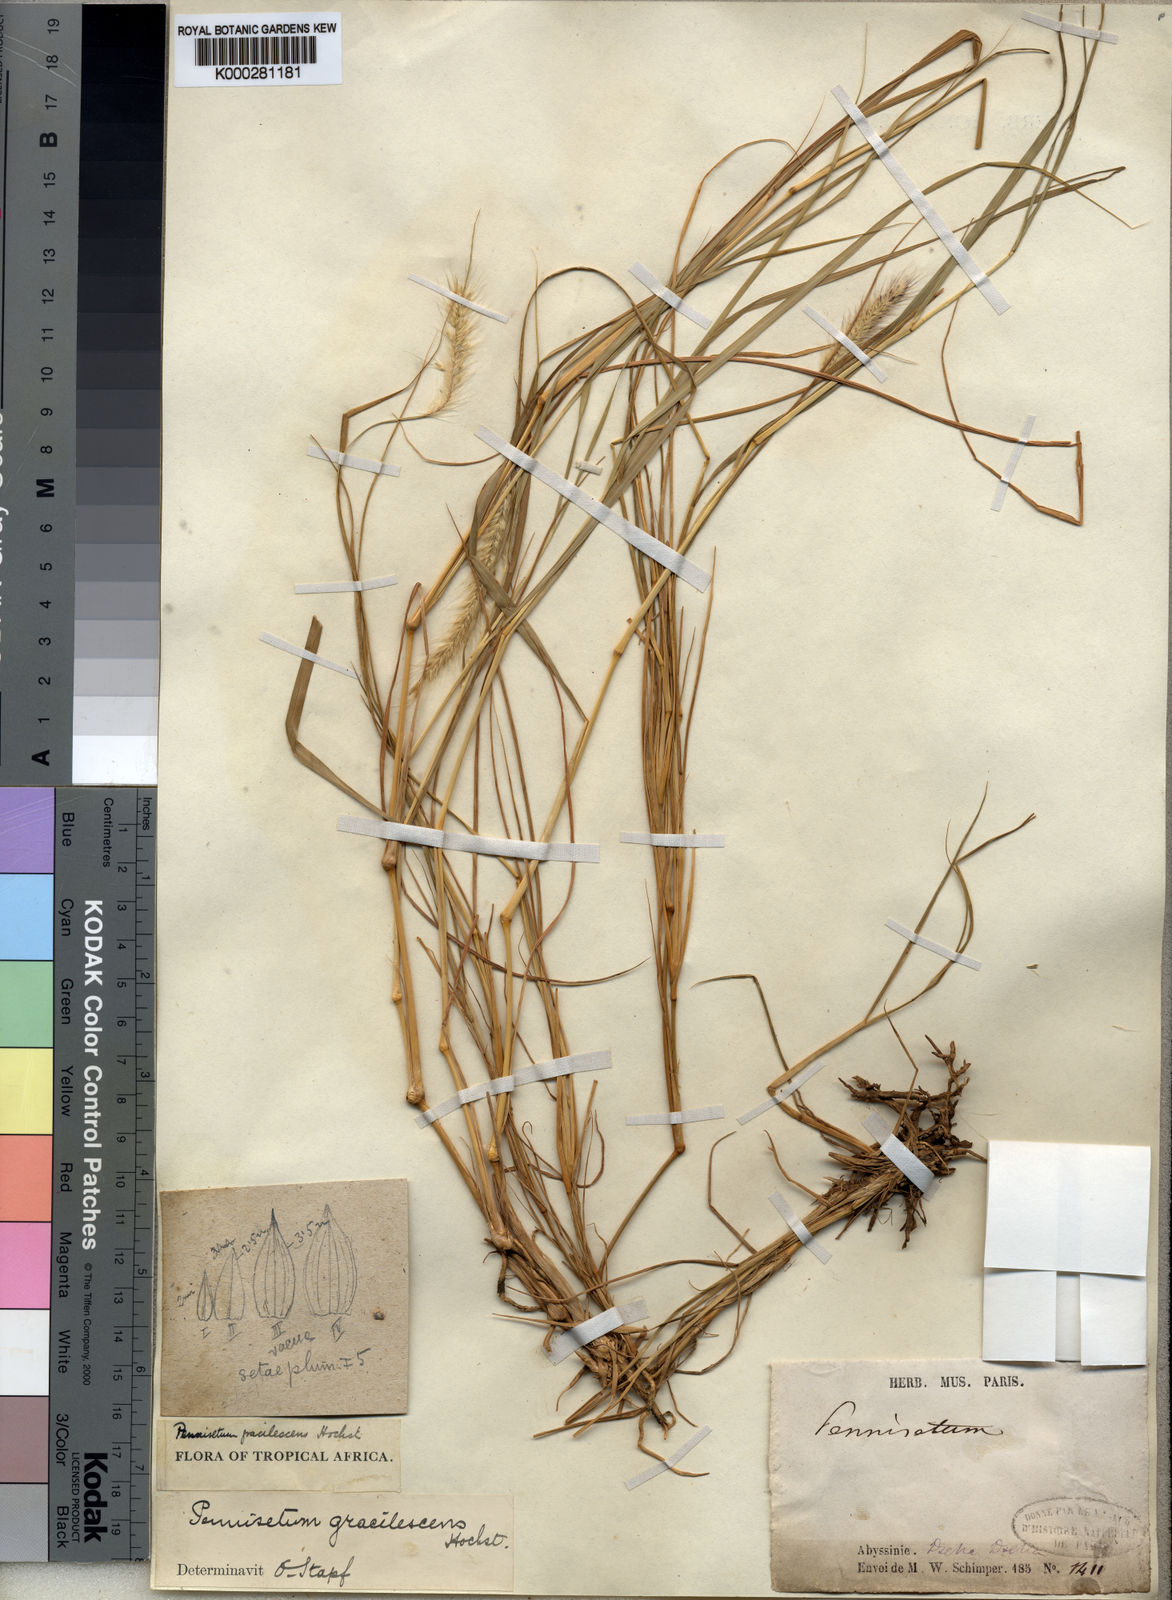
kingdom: Plantae
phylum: Tracheophyta
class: Liliopsida
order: Poales
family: Poaceae
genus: Cenchrus
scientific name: Cenchrus gracilescens
